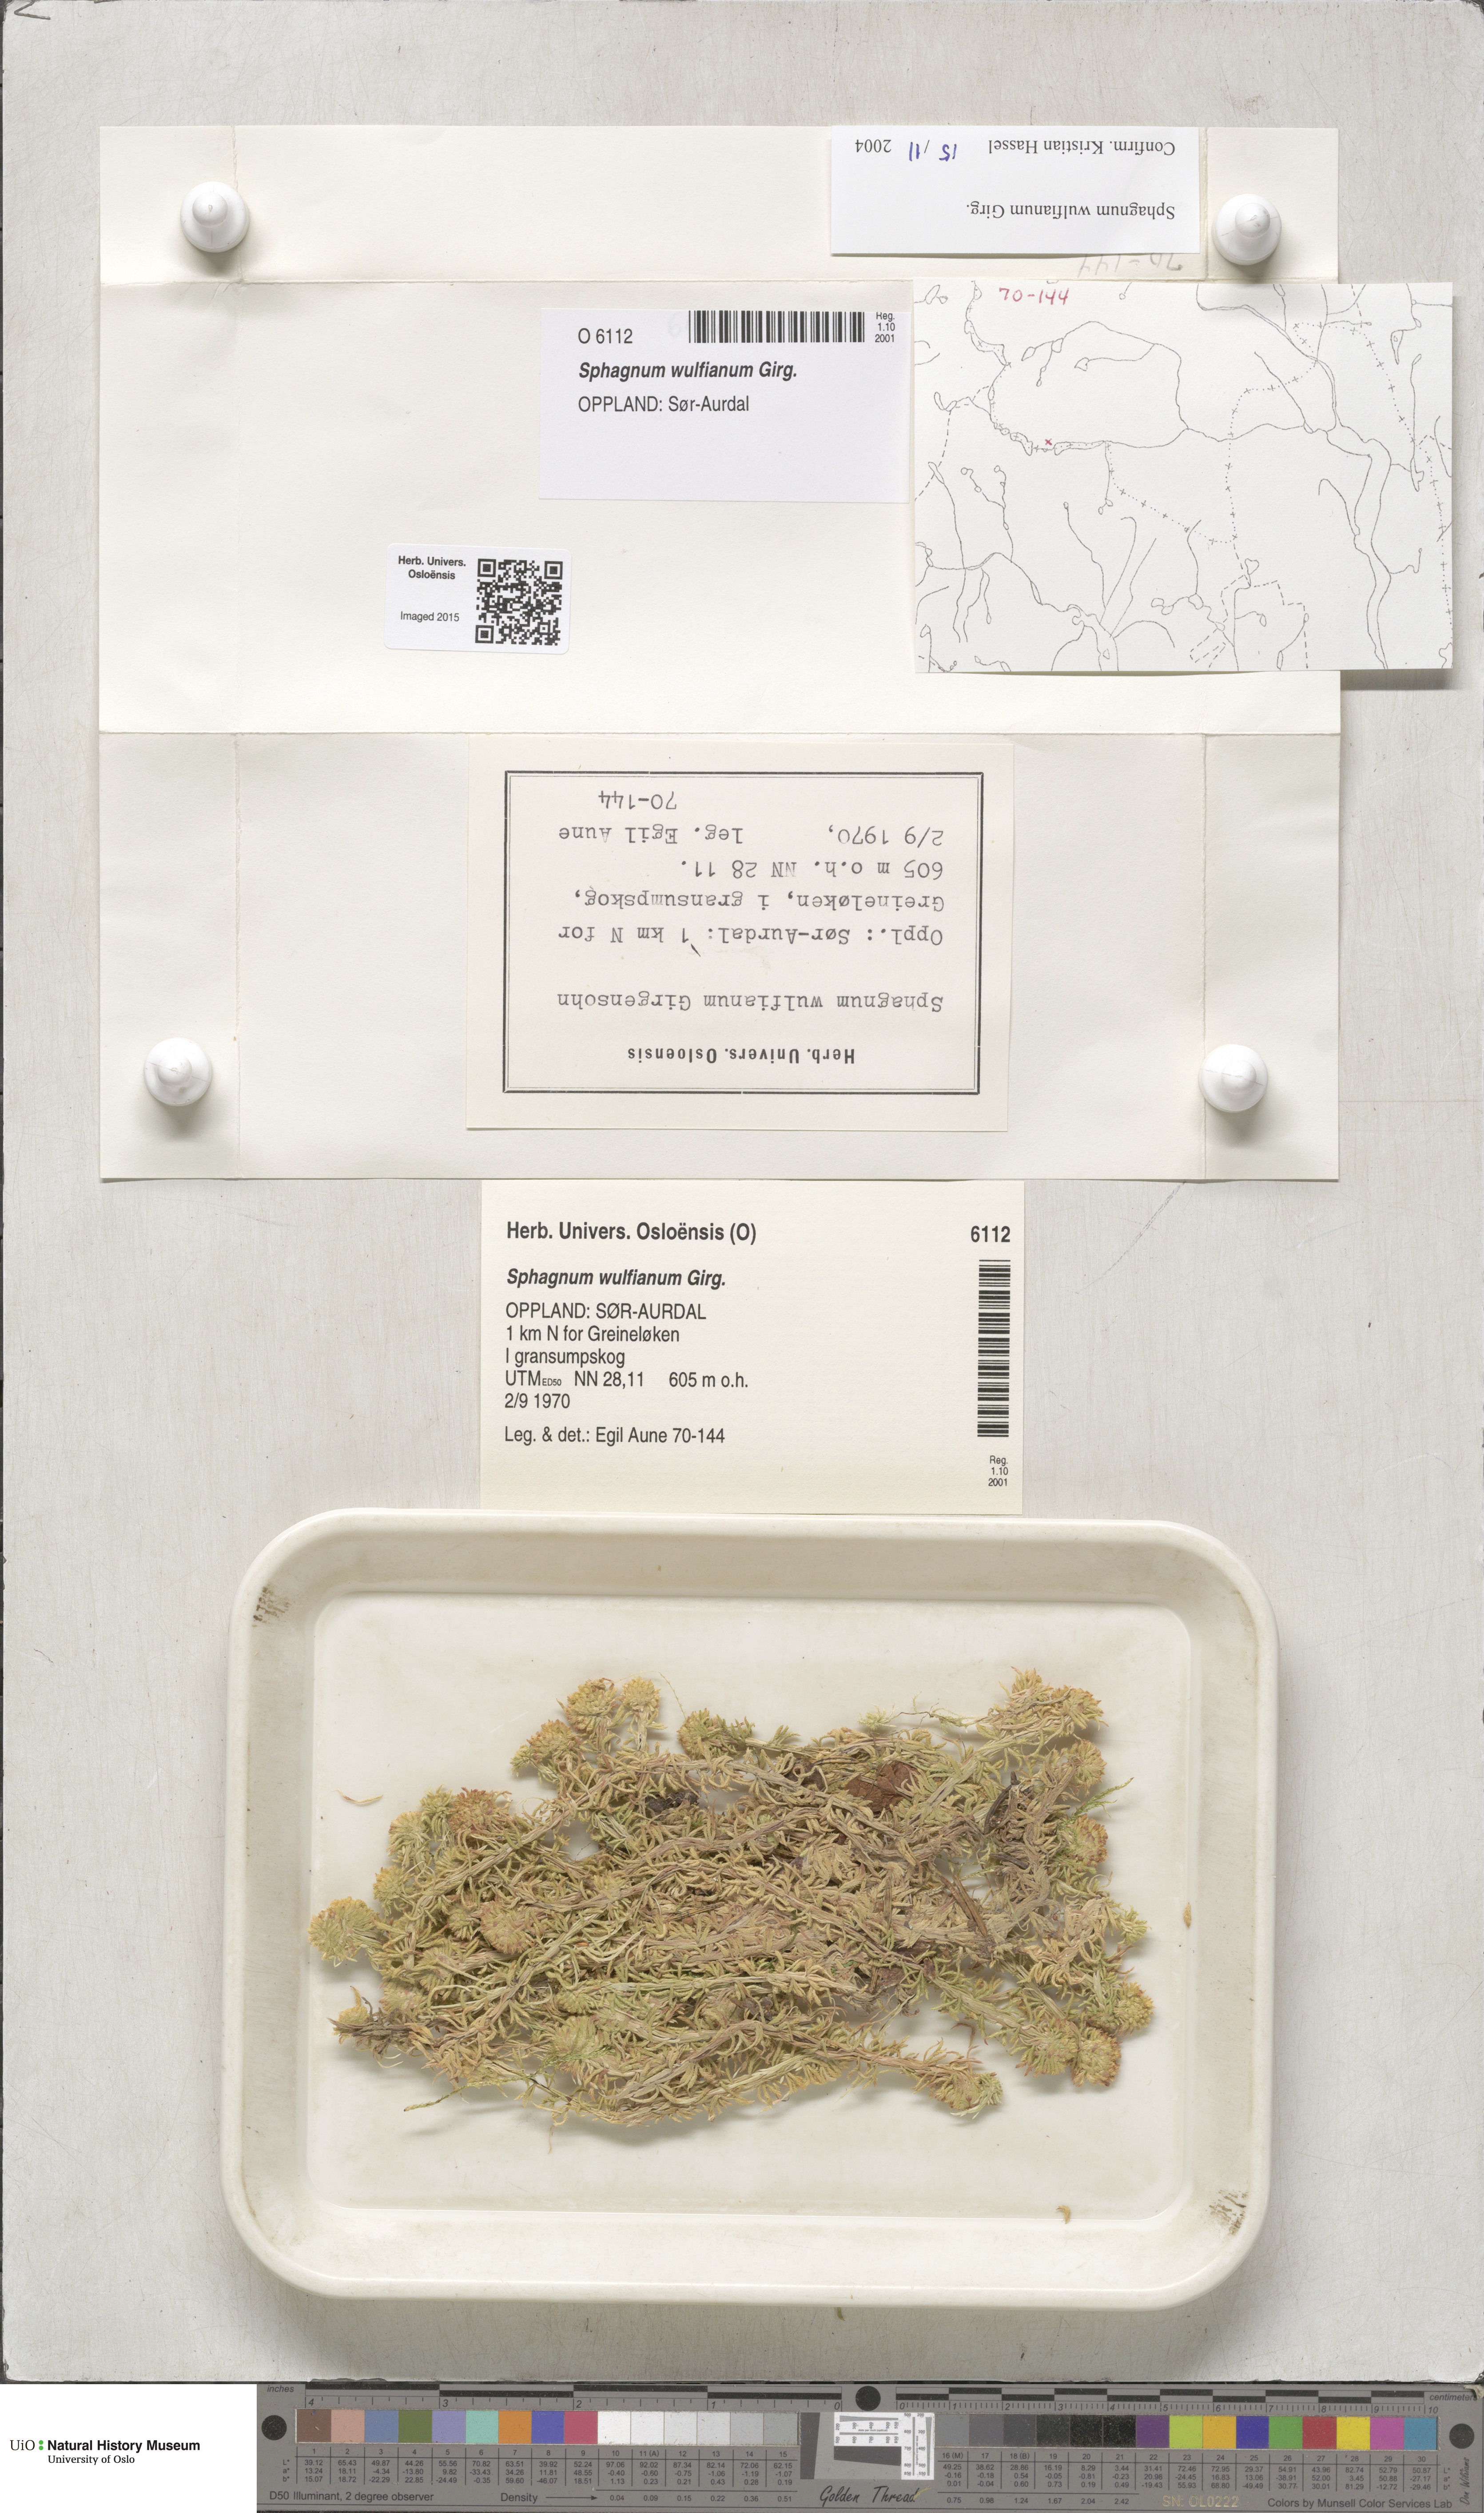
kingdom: Plantae
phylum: Bryophyta
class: Sphagnopsida
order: Sphagnales
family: Sphagnaceae
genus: Sphagnum
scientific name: Sphagnum wulfianum
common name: Wulf's peat moss
